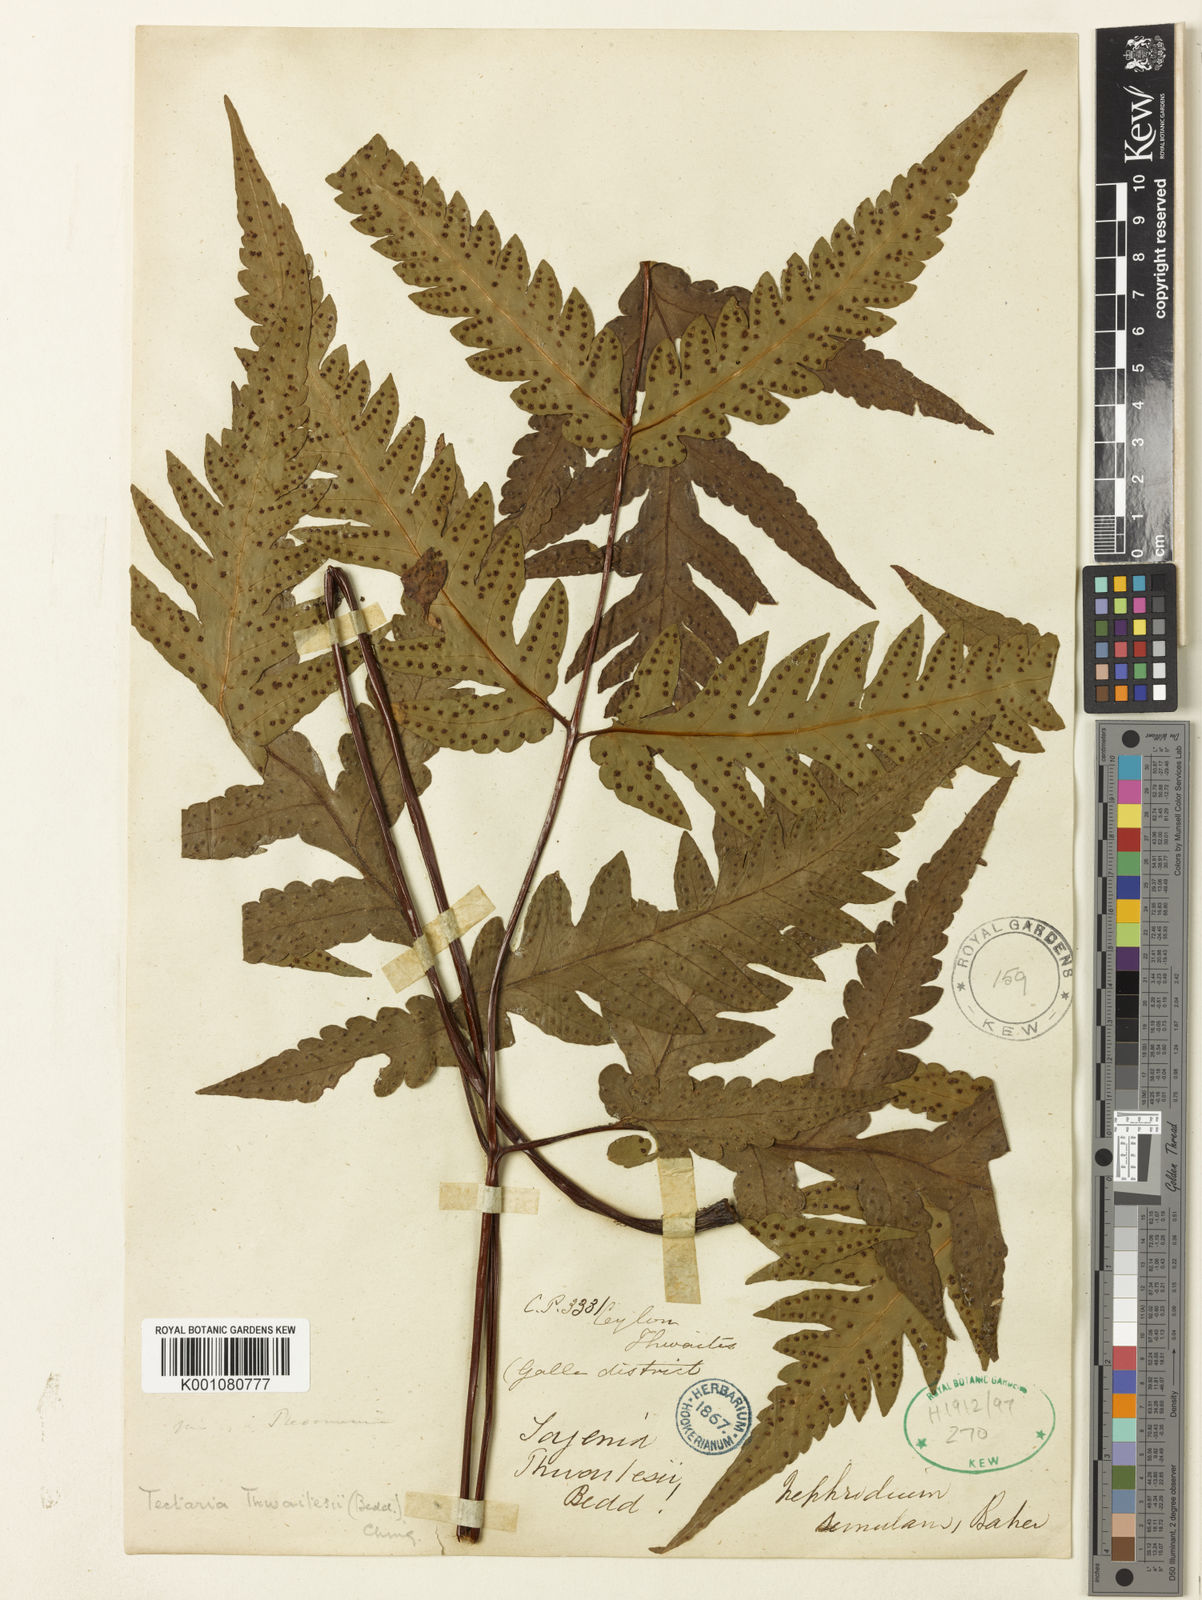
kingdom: Plantae
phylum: Tracheophyta
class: Polypodiopsida
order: Polypodiales
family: Tectariaceae
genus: Tectaria
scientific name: Tectaria thwaitesii
